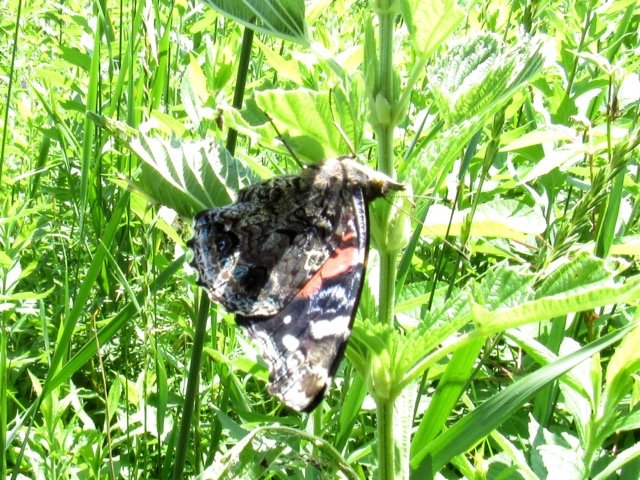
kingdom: Animalia
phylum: Arthropoda
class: Insecta
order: Lepidoptera
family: Nymphalidae
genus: Vanessa
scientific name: Vanessa atalanta
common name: Red Admiral
